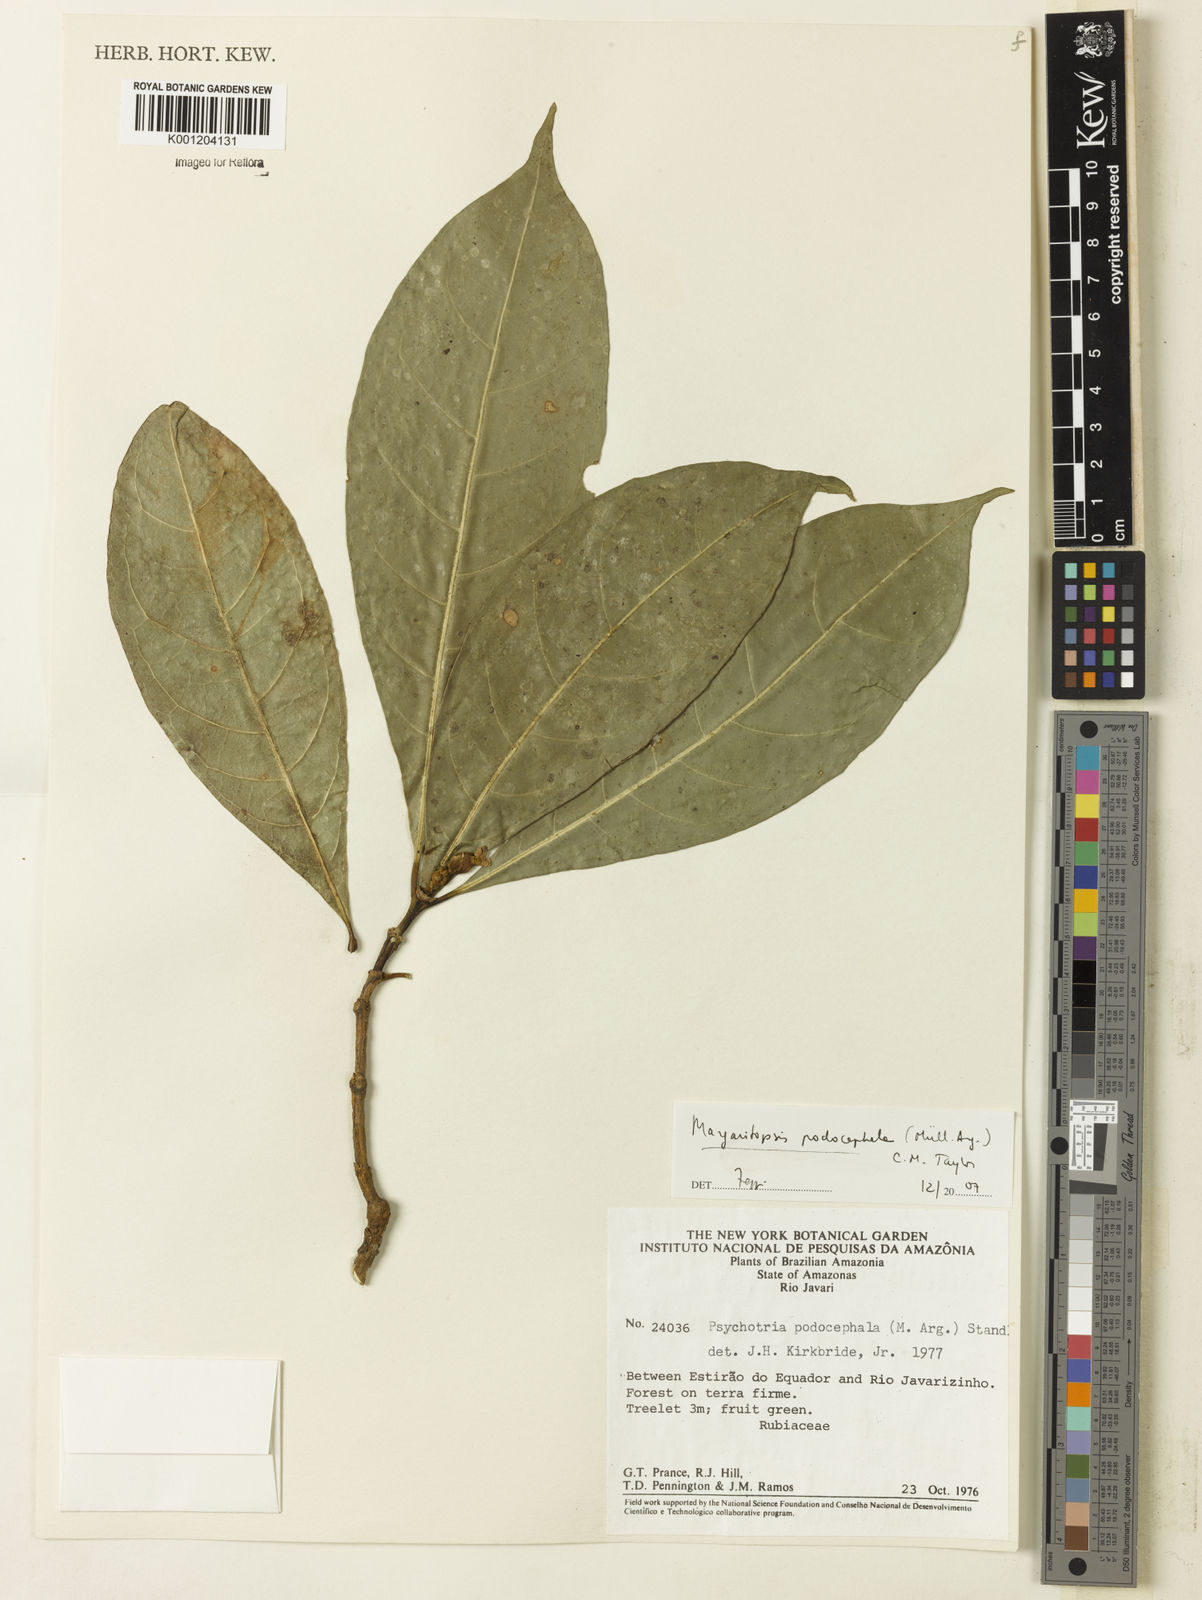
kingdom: Plantae
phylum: Tracheophyta
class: Magnoliopsida
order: Gentianales
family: Rubiaceae
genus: Eumachia
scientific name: Eumachia
